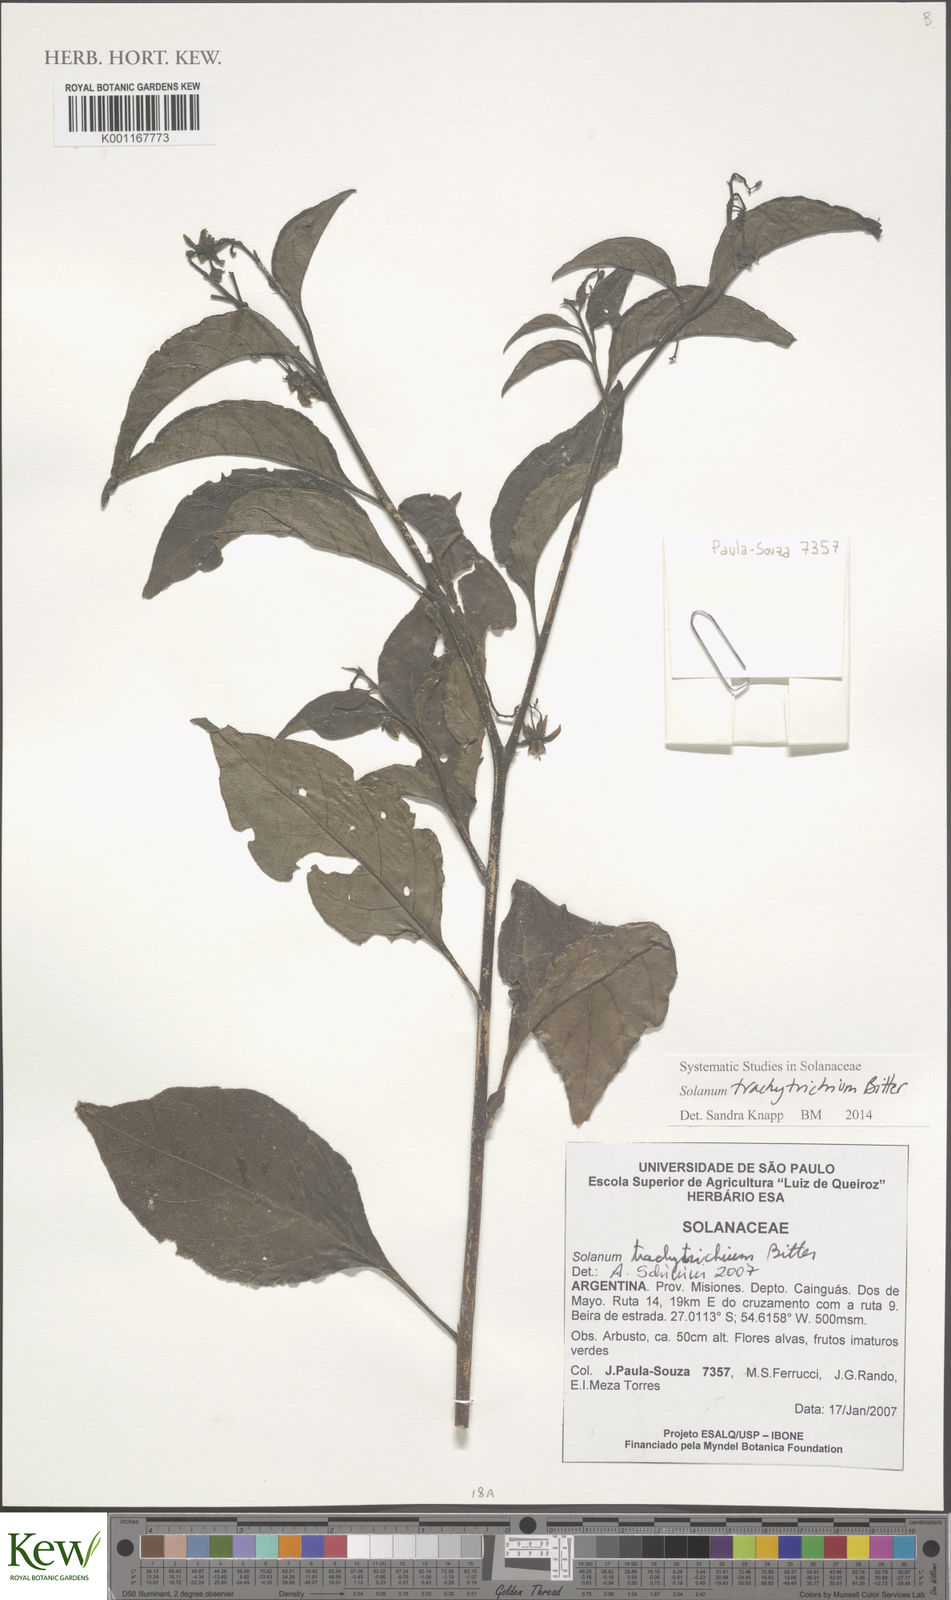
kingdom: Plantae
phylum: Tracheophyta
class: Magnoliopsida
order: Solanales
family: Solanaceae
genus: Solanum
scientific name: Solanum trachytrichium
